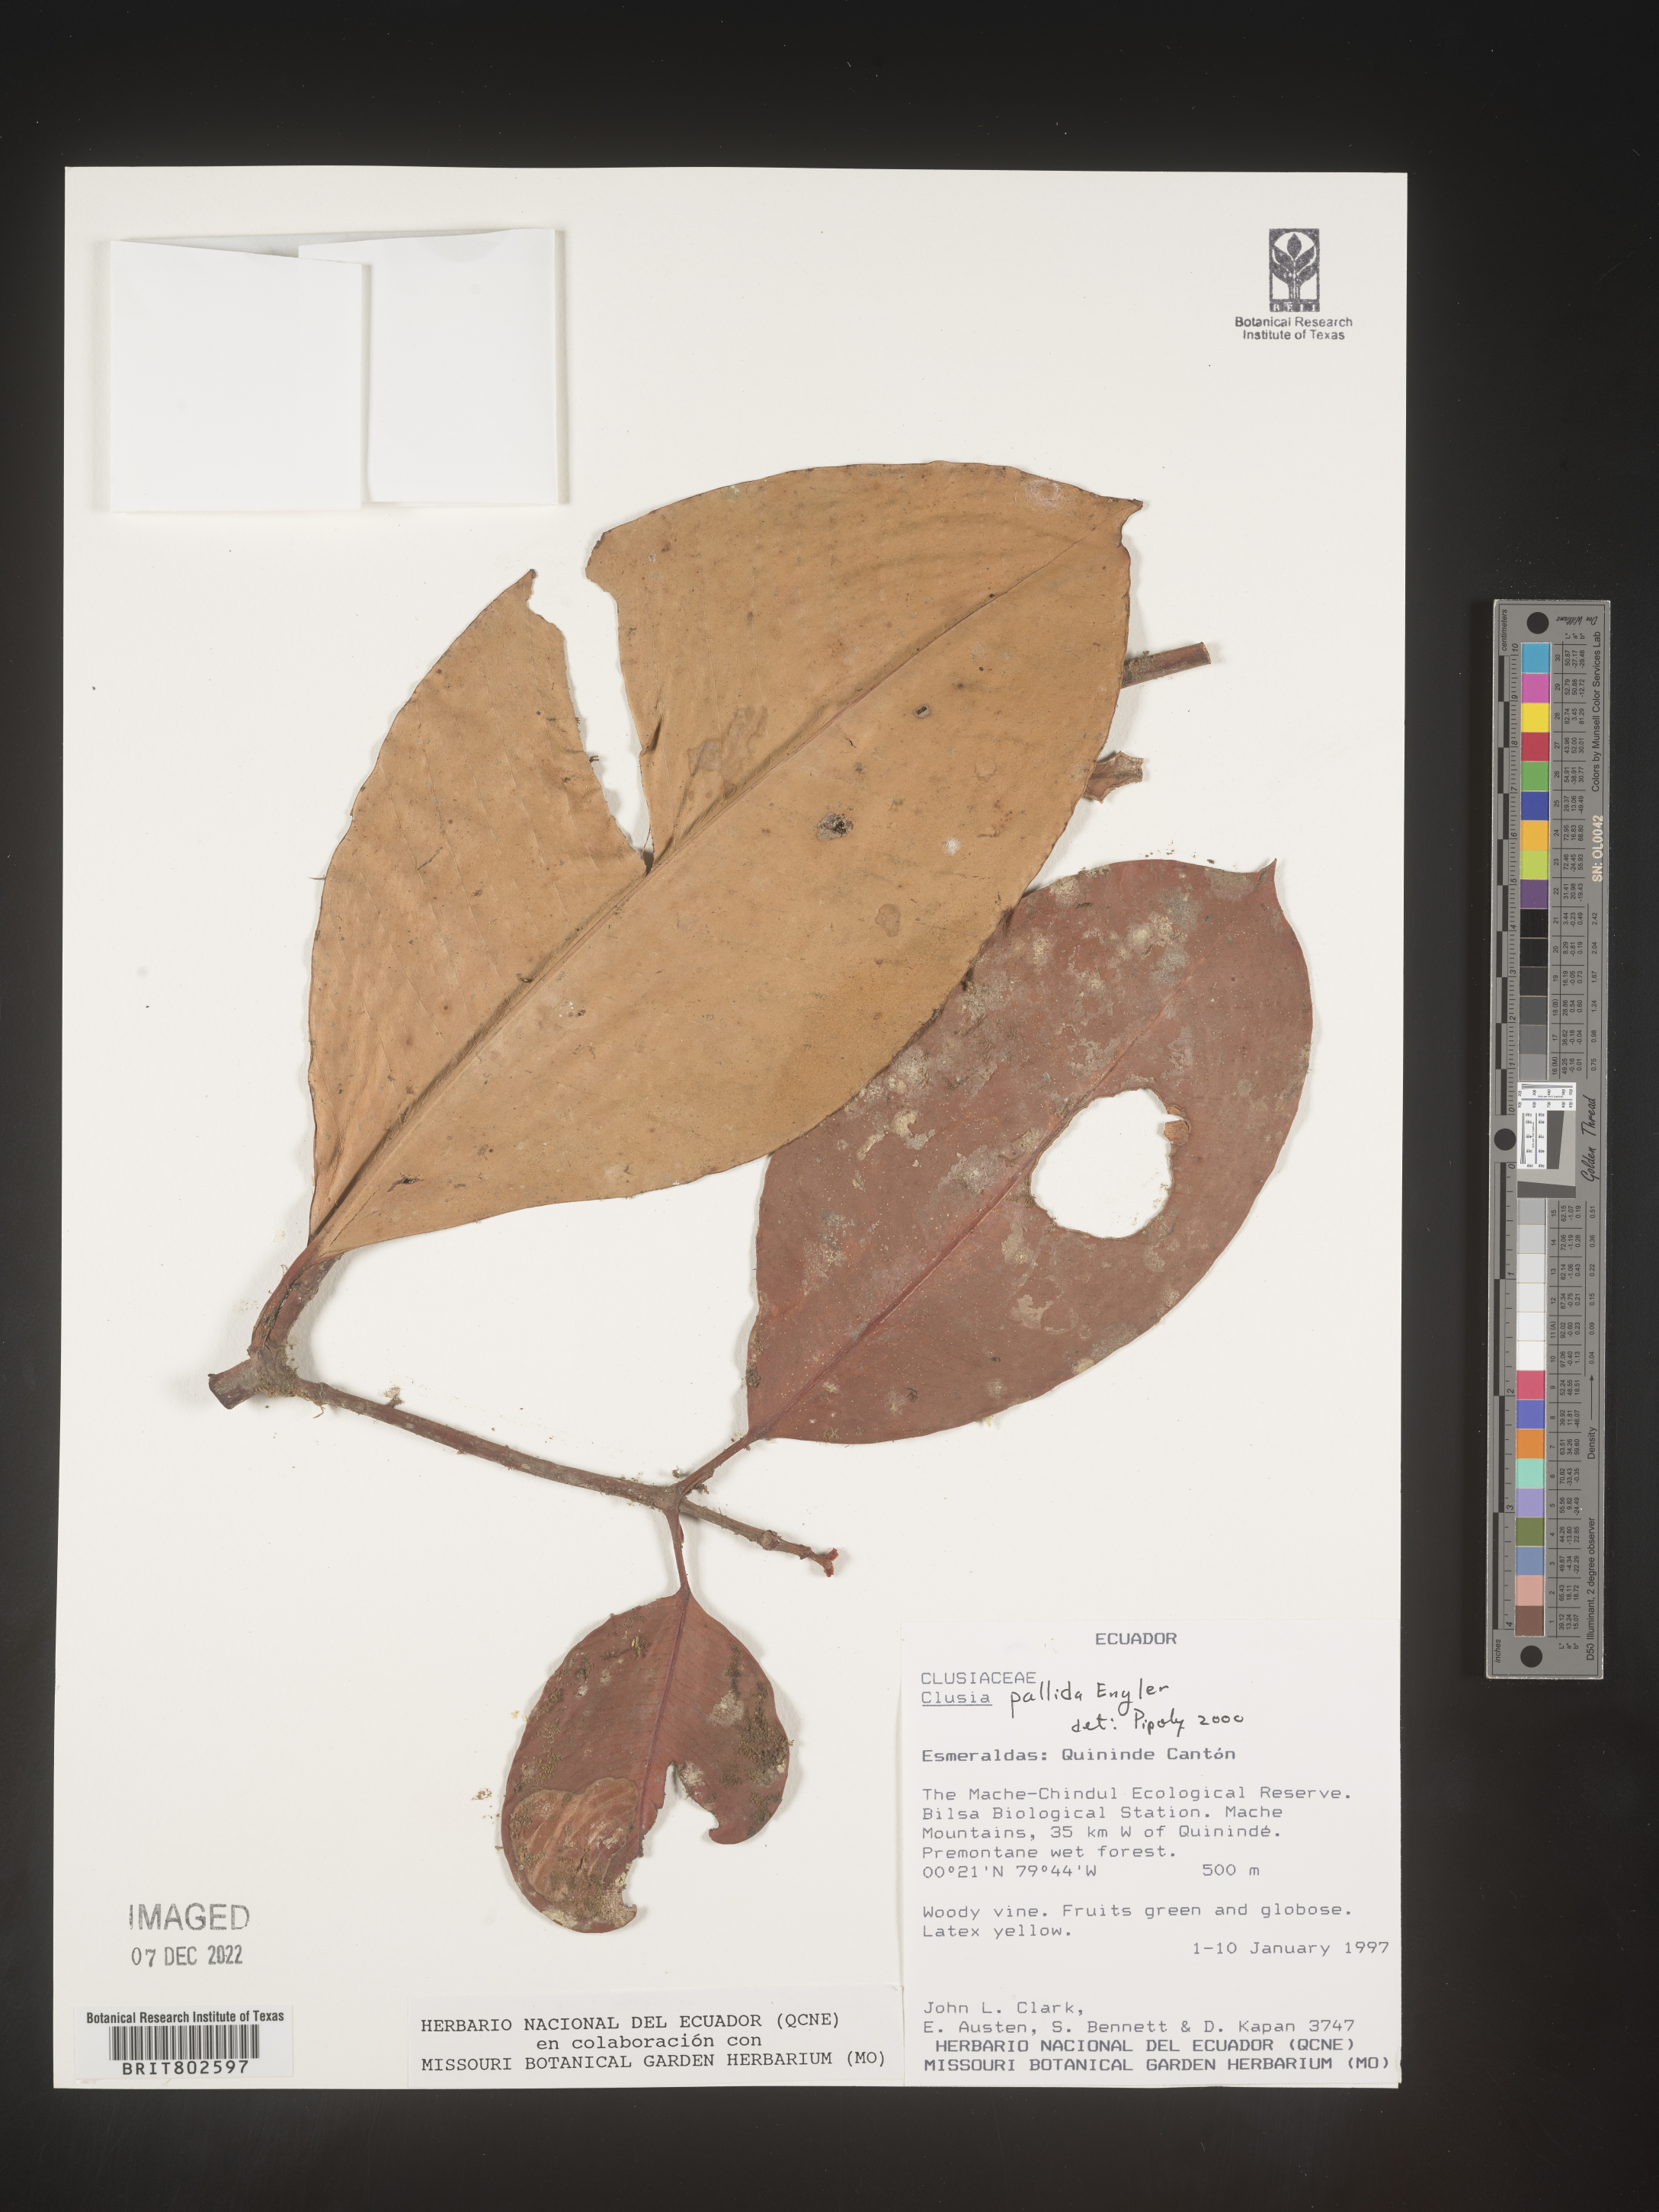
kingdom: Plantae
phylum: Tracheophyta
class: Magnoliopsida
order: Malpighiales
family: Clusiaceae
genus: Clusia
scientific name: Clusia pallida
